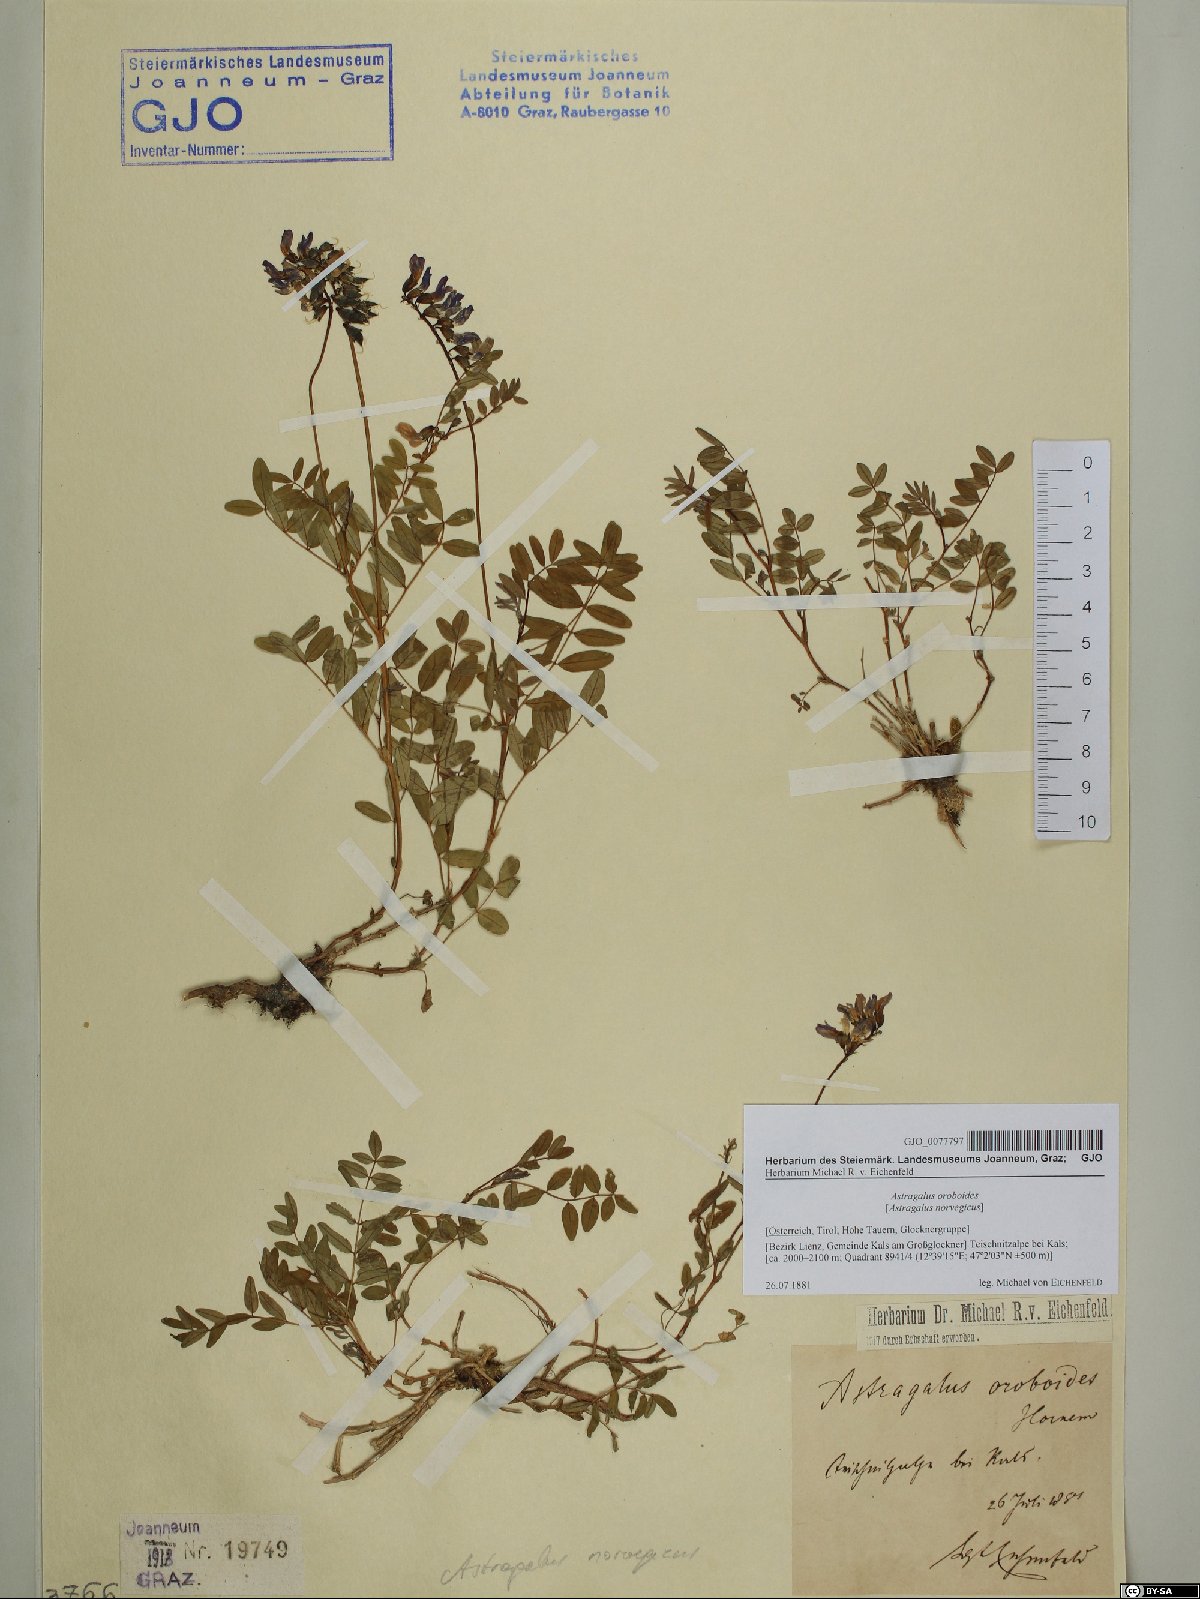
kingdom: Plantae
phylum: Tracheophyta
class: Magnoliopsida
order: Fabales
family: Fabaceae
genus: Astragalus
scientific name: Astragalus norvegicus
